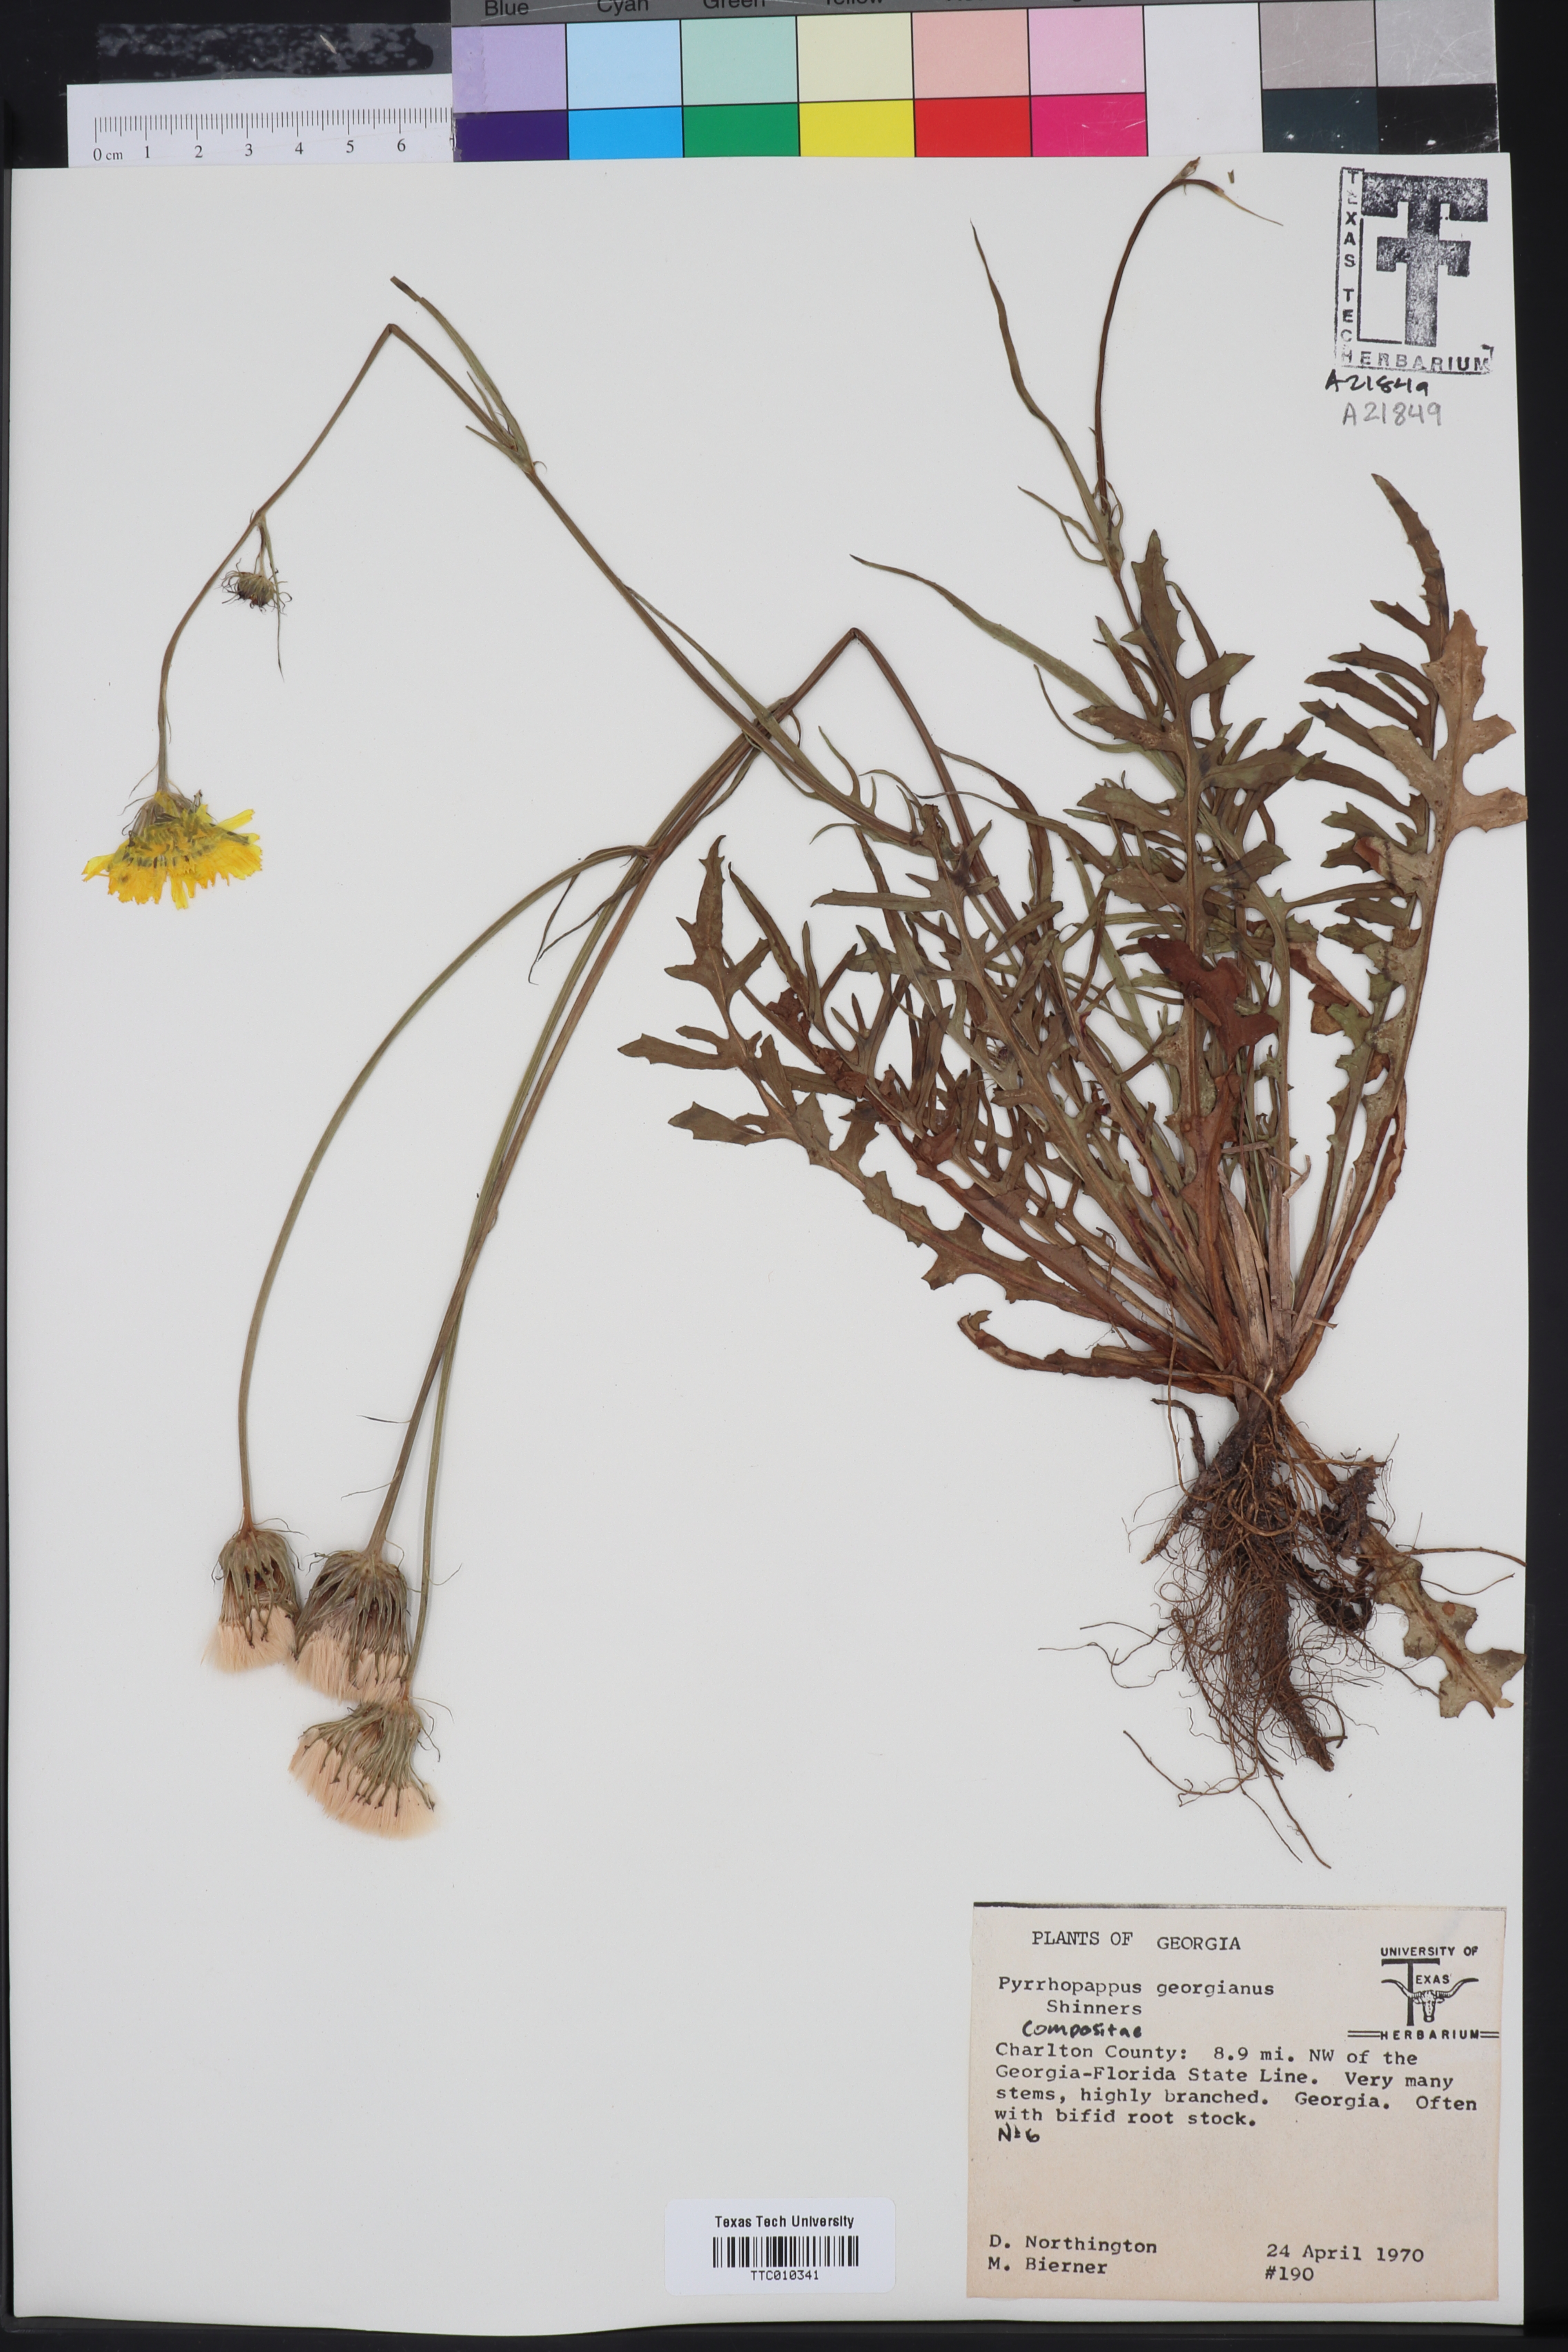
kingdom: Plantae
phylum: Tracheophyta
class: Magnoliopsida
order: Asterales
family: Asteraceae
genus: Pyrrhopappus
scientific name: Pyrrhopappus carolinianus
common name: Carolina desert-chicory
